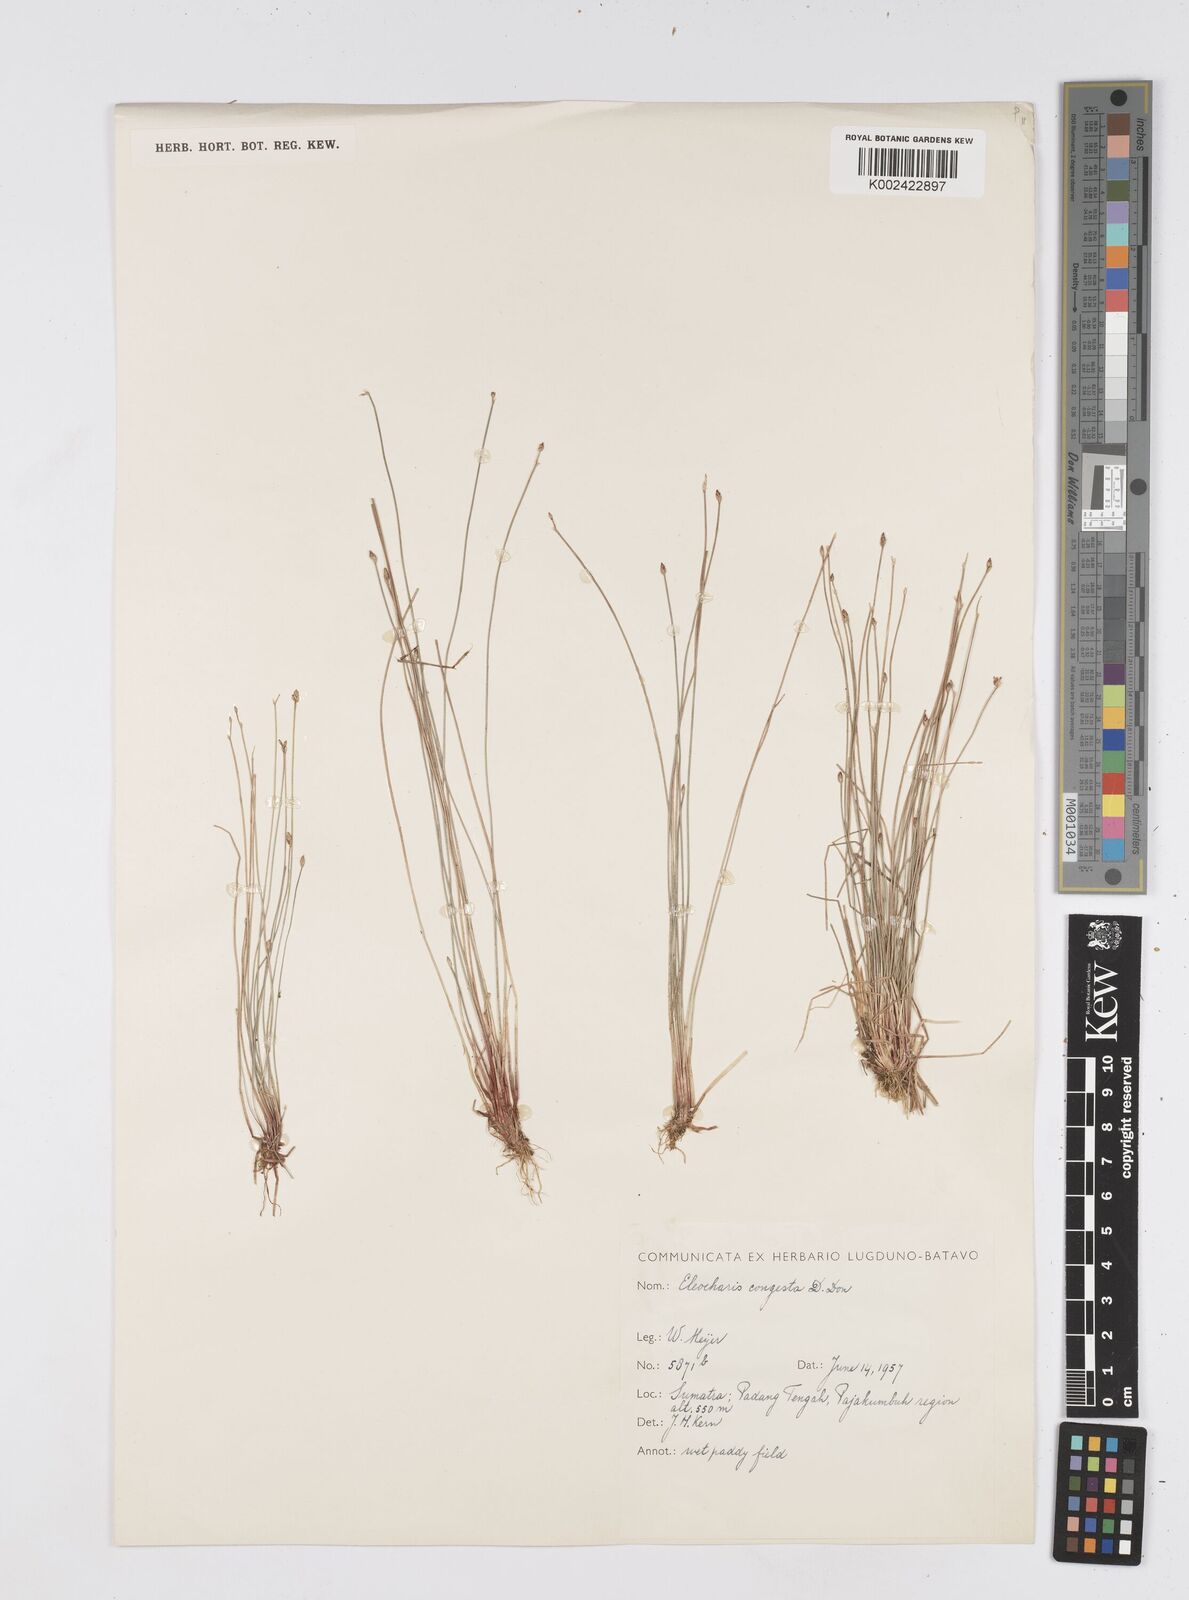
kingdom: Plantae
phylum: Tracheophyta
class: Liliopsida
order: Poales
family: Cyperaceae
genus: Eleocharis
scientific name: Eleocharis congesta
